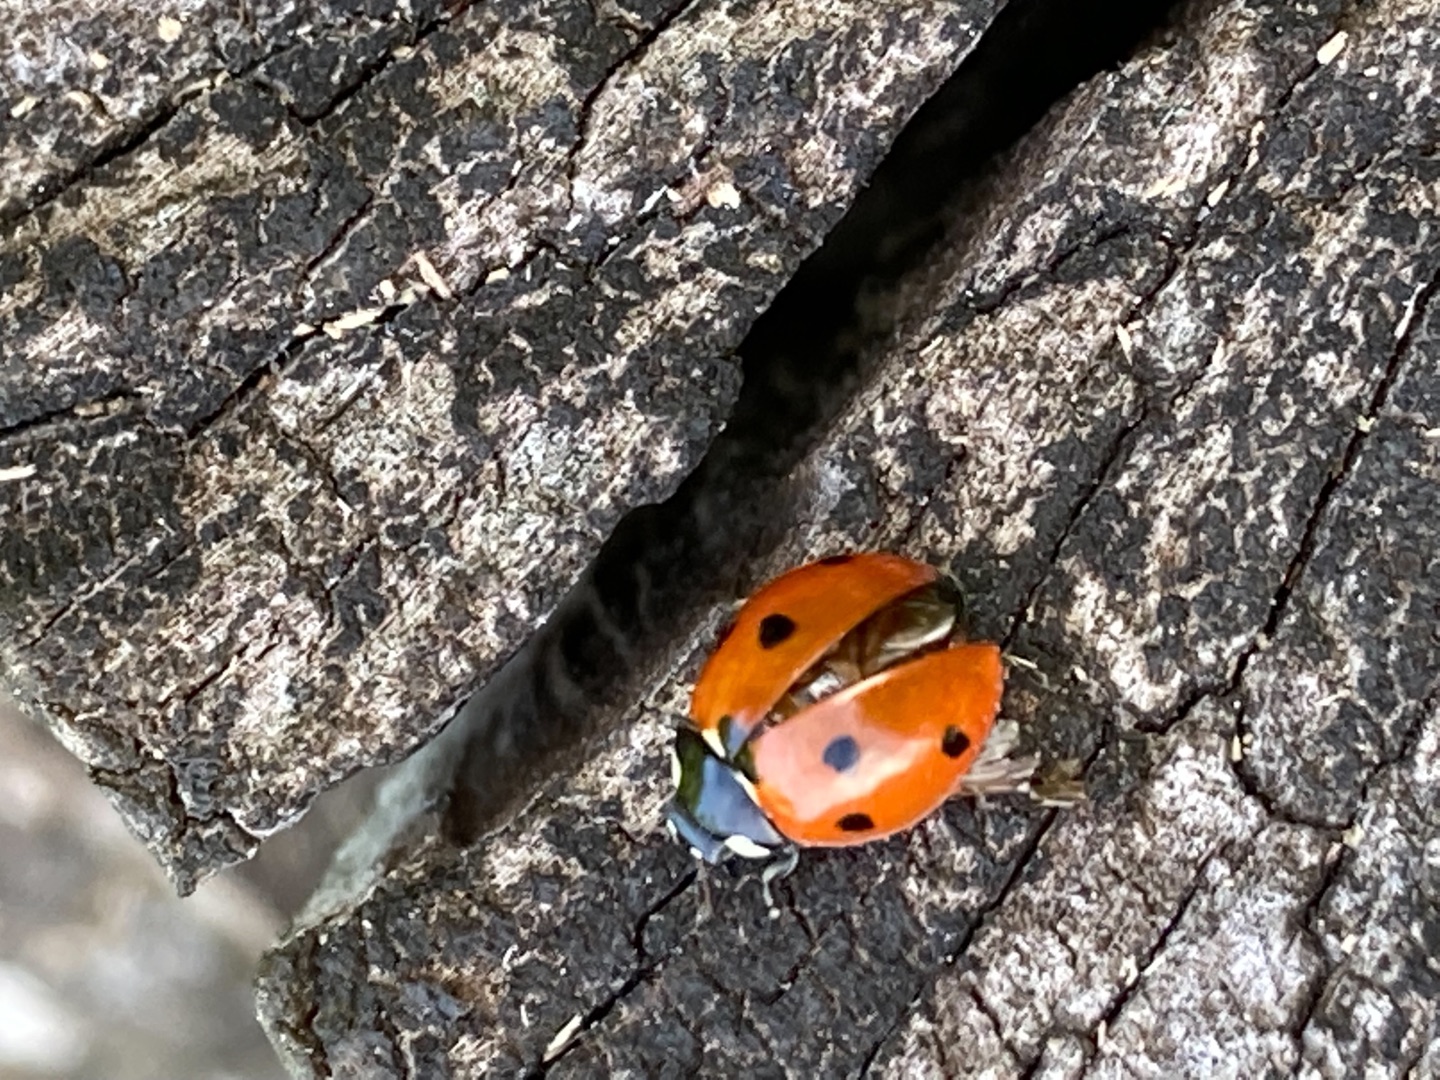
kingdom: Animalia
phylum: Arthropoda
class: Insecta
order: Coleoptera
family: Coccinellidae
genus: Coccinella
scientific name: Coccinella septempunctata
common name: Syvplettet mariehøne
